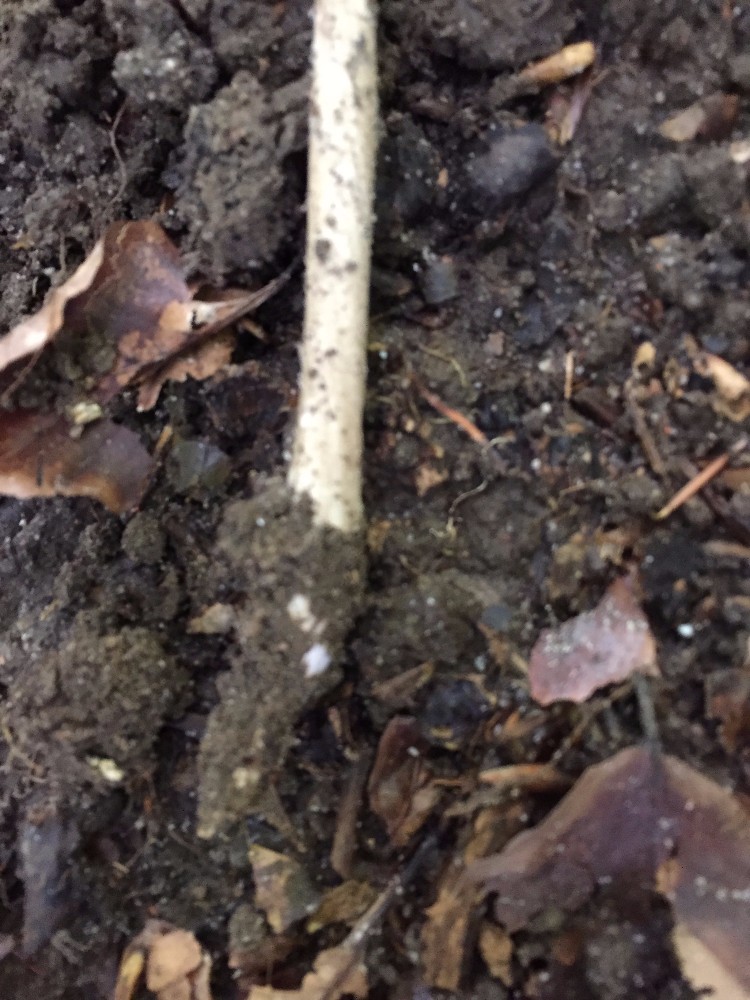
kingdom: Fungi
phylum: Basidiomycota
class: Agaricomycetes
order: Agaricales
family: Physalacriaceae
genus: Hymenopellis
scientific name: Hymenopellis radicata
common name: almindelig pælerodshat
